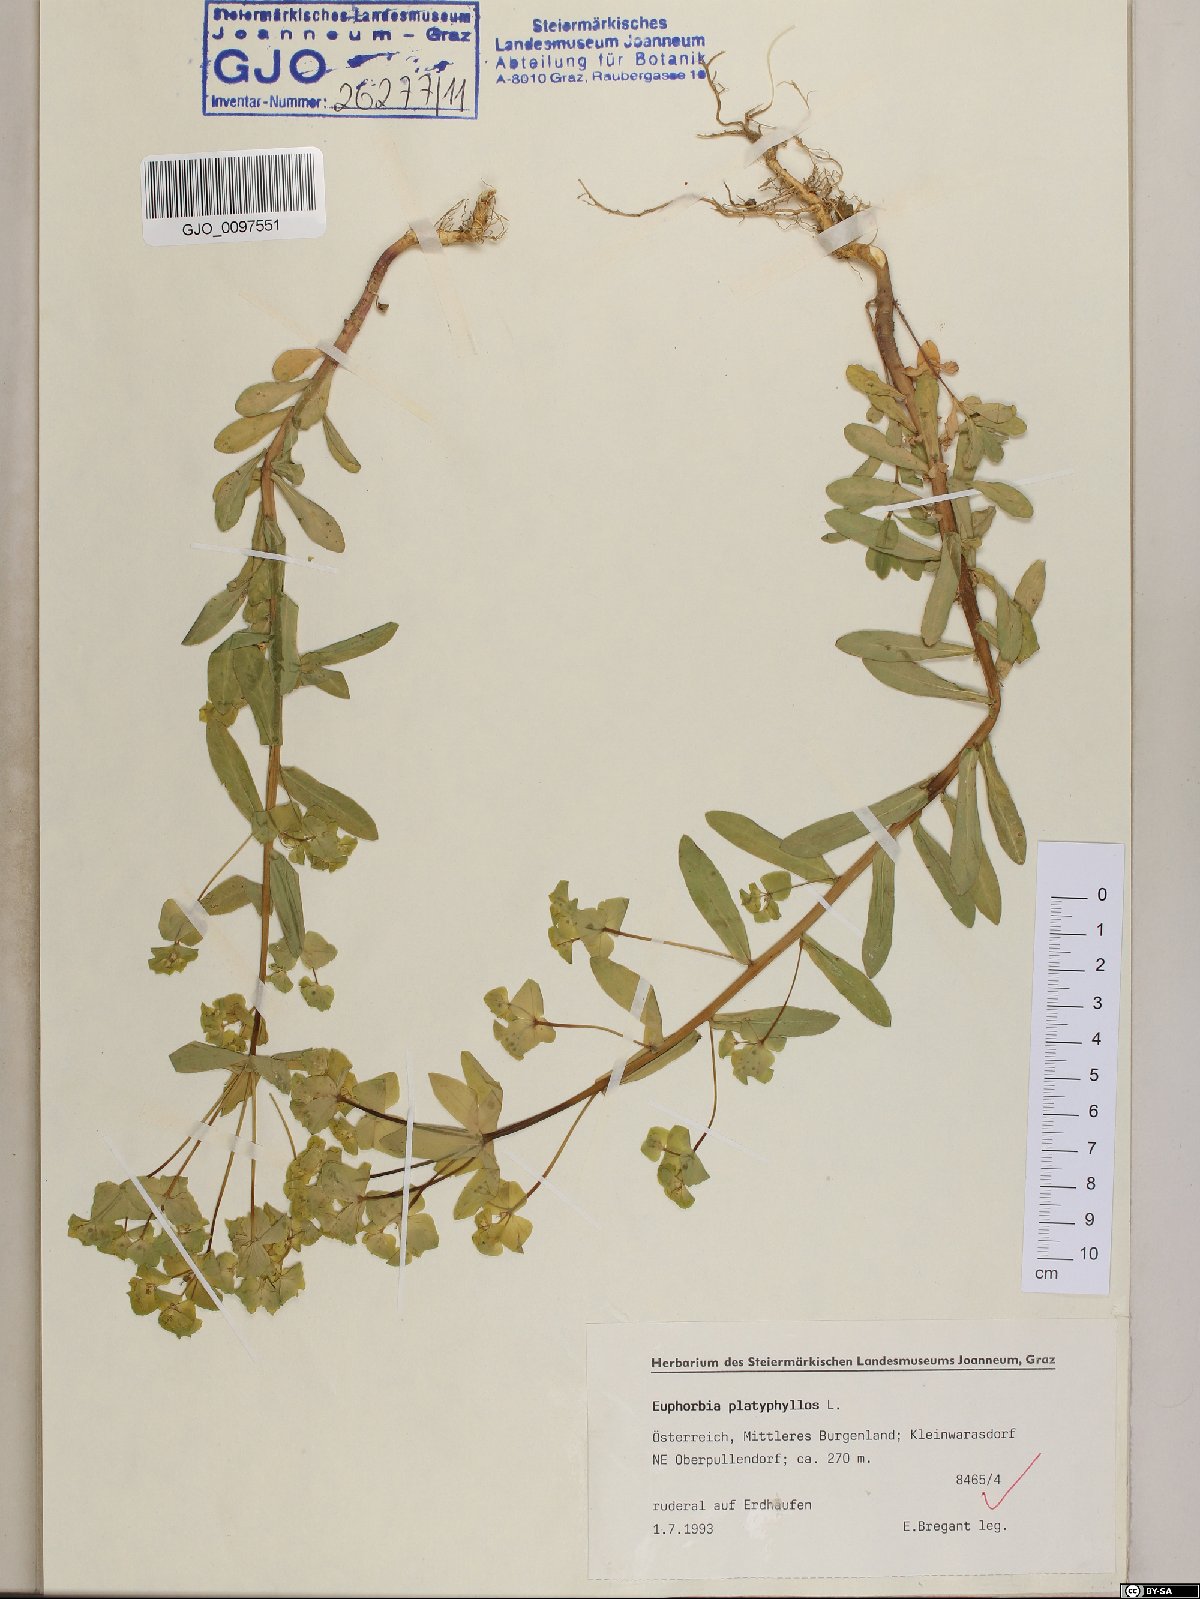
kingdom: Plantae
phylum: Tracheophyta
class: Magnoliopsida
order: Malpighiales
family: Euphorbiaceae
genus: Euphorbia
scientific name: Euphorbia platyphyllos
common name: Broad-leaved spurge
